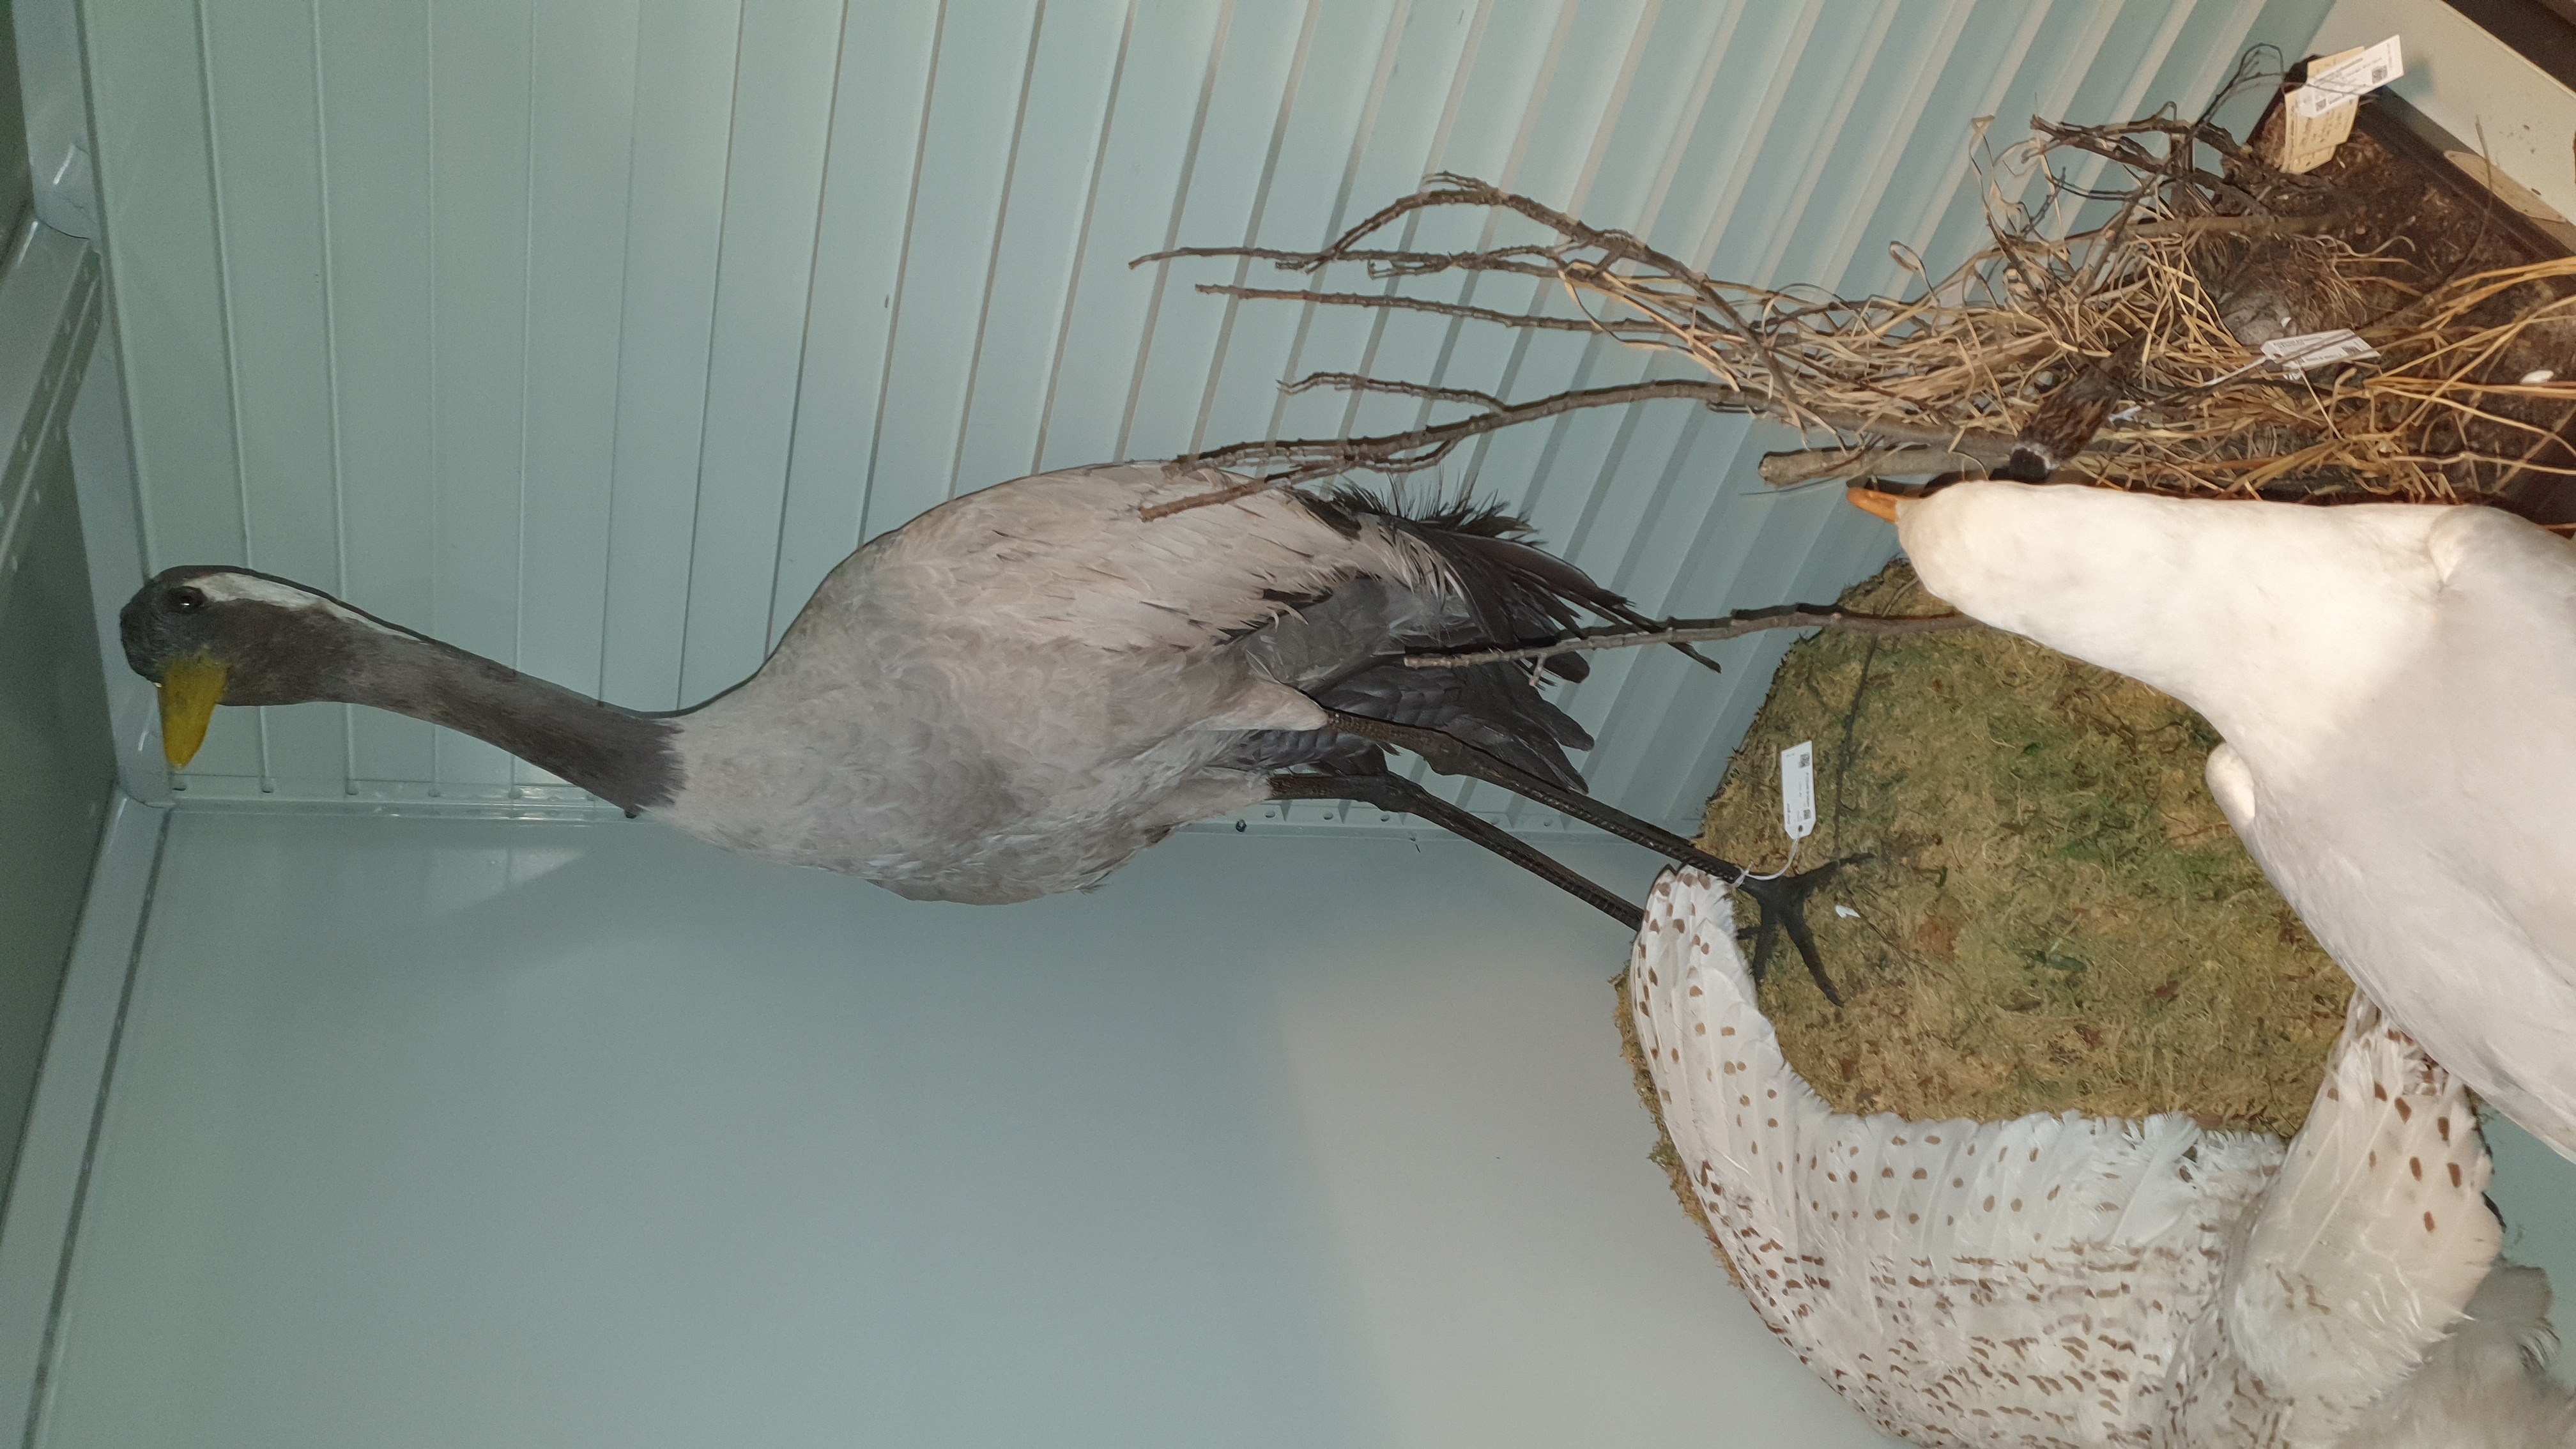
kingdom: Animalia
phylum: Chordata
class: Aves
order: Gruiformes
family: Gruidae
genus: Grus
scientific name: Grus grus
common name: Common crane
